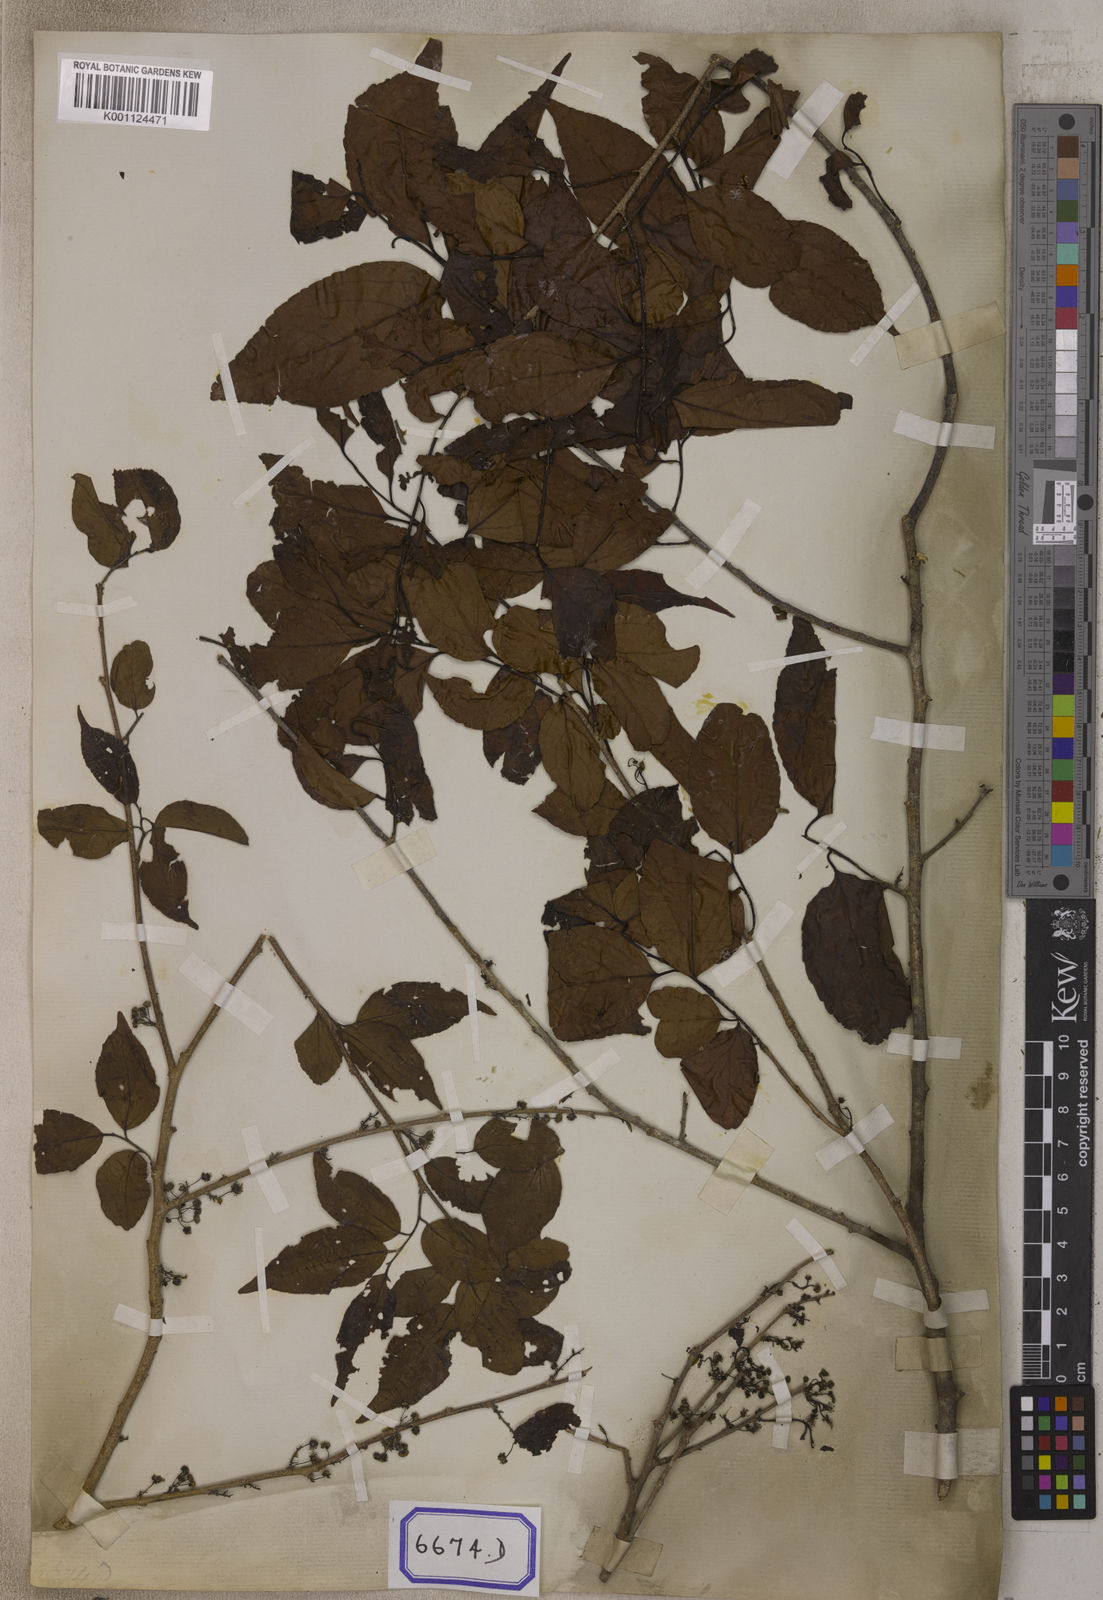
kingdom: Plantae
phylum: Tracheophyta
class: Magnoliopsida
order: Malpighiales
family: Salicaceae
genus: Flacourtia
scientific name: Flacourtia
